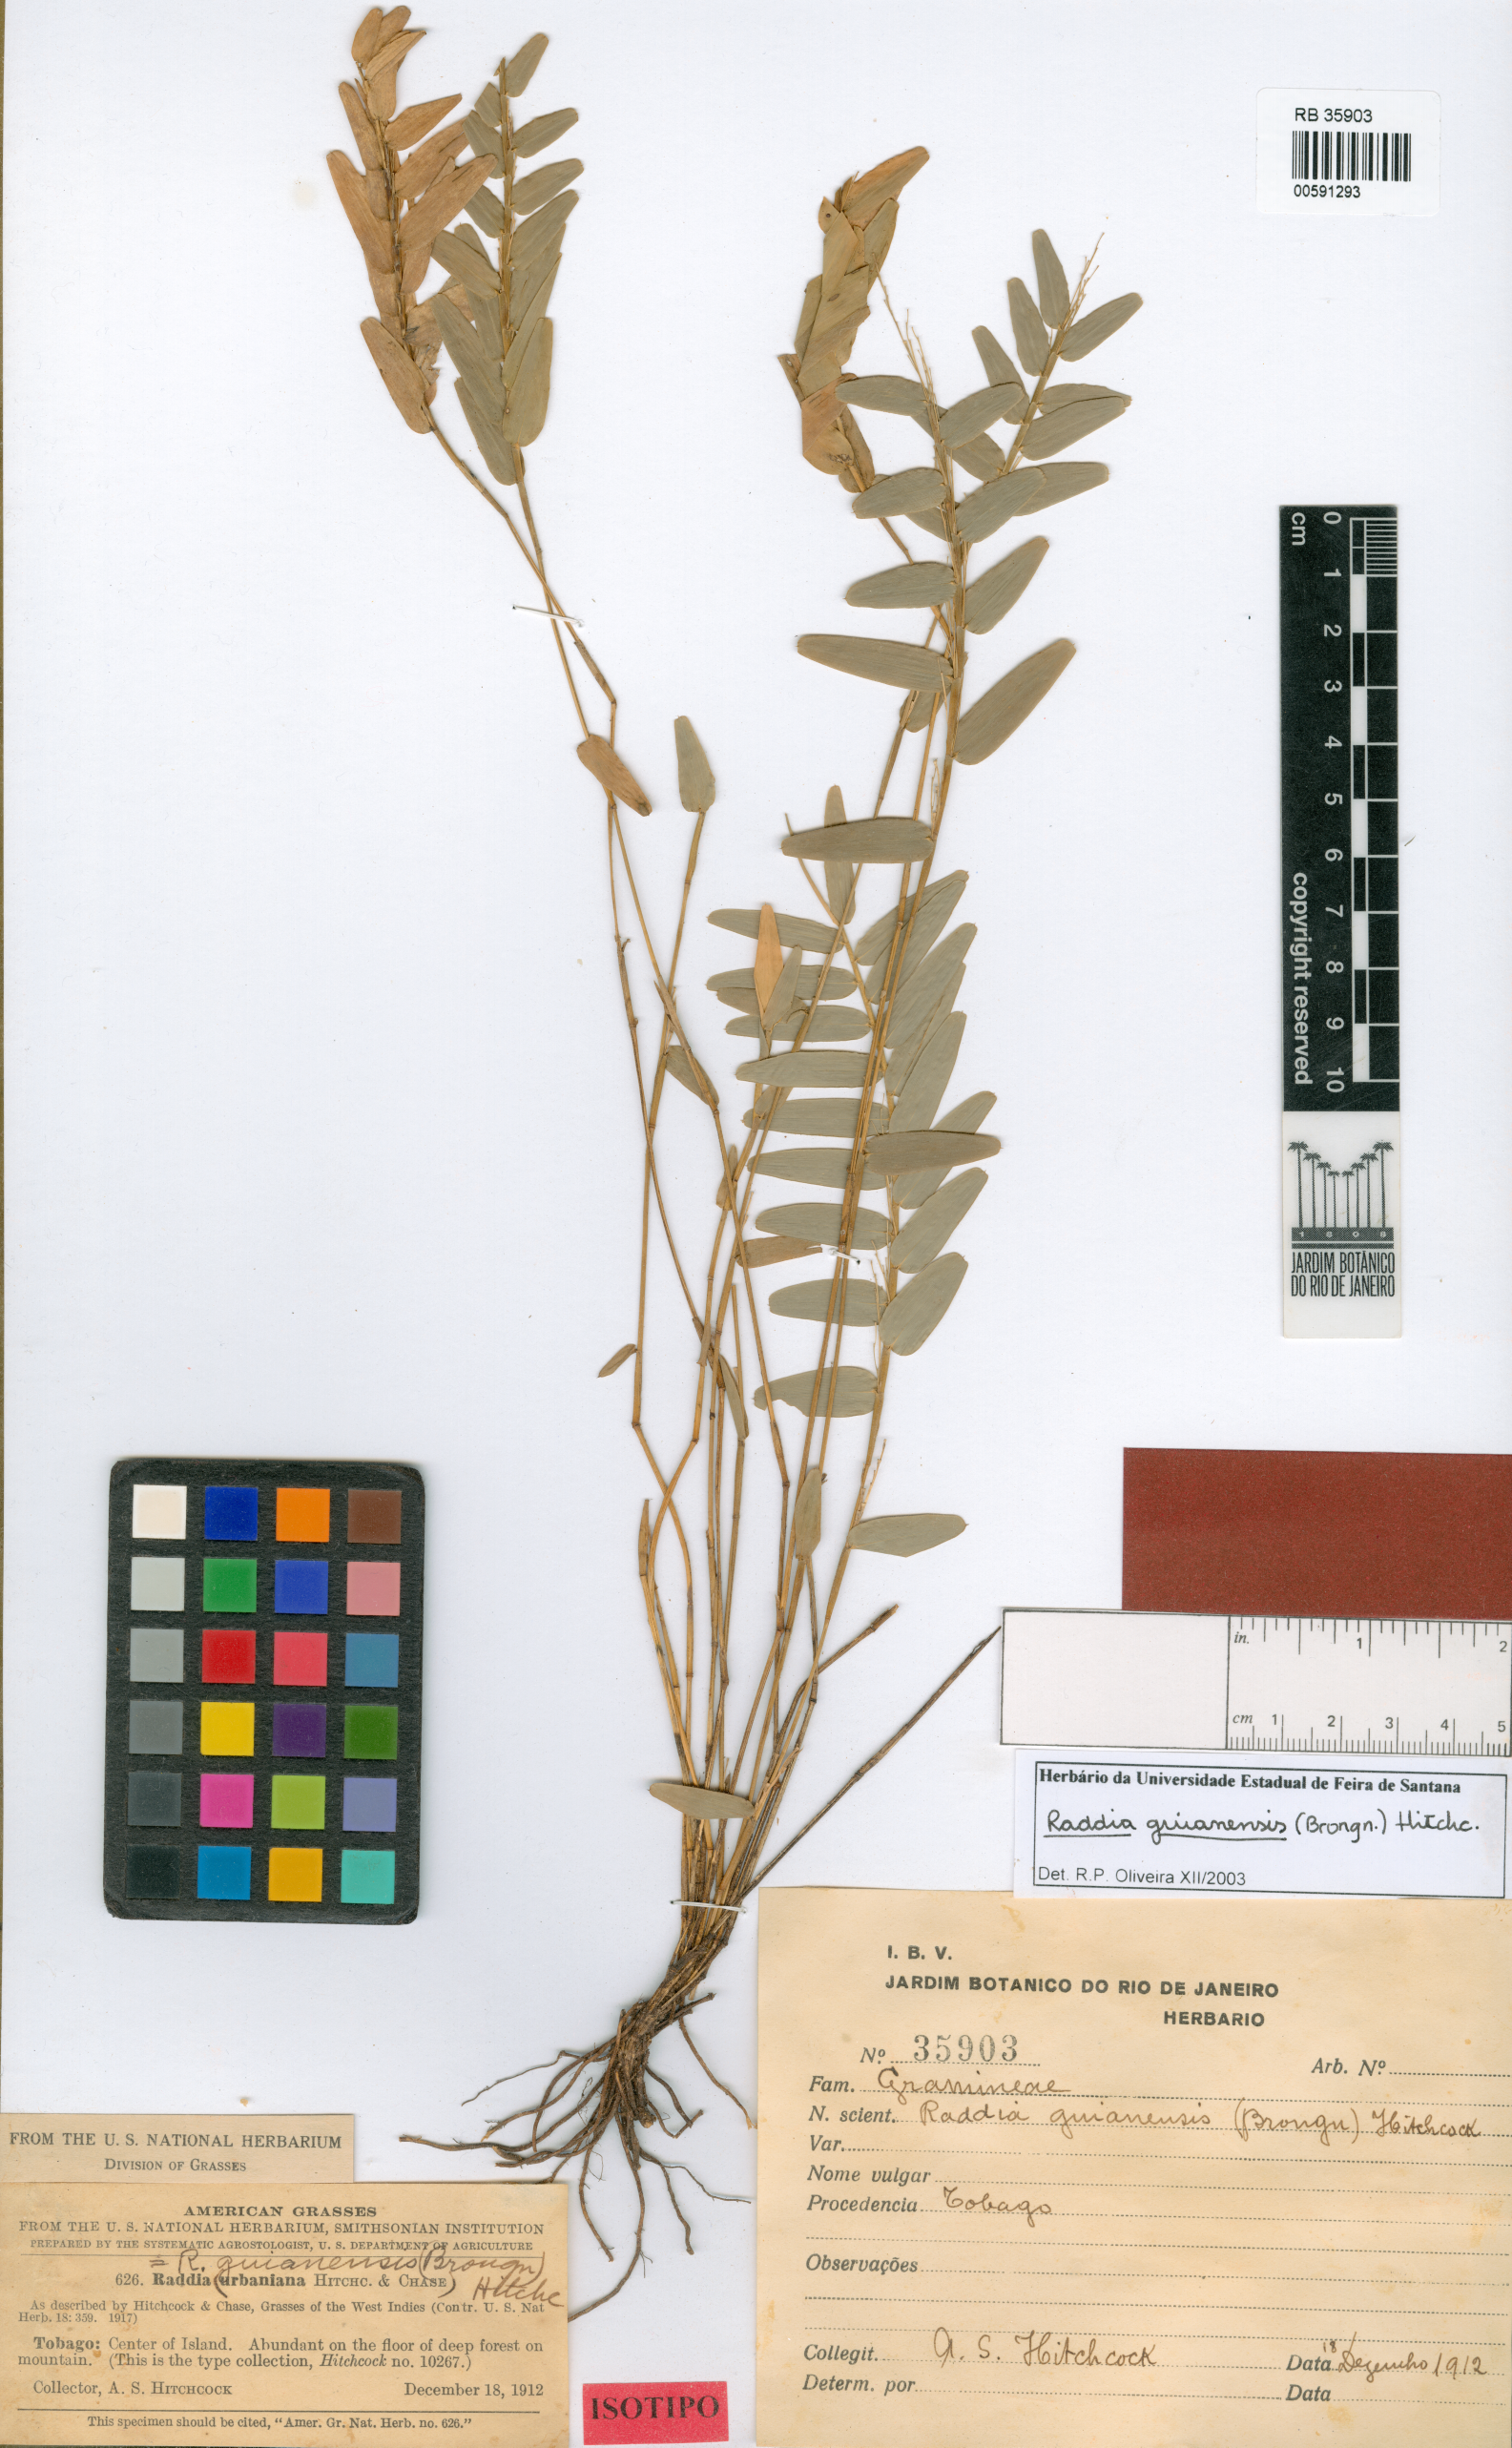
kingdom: Plantae
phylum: Tracheophyta
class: Liliopsida
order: Poales
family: Poaceae
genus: Raddia
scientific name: Raddia guianensis
